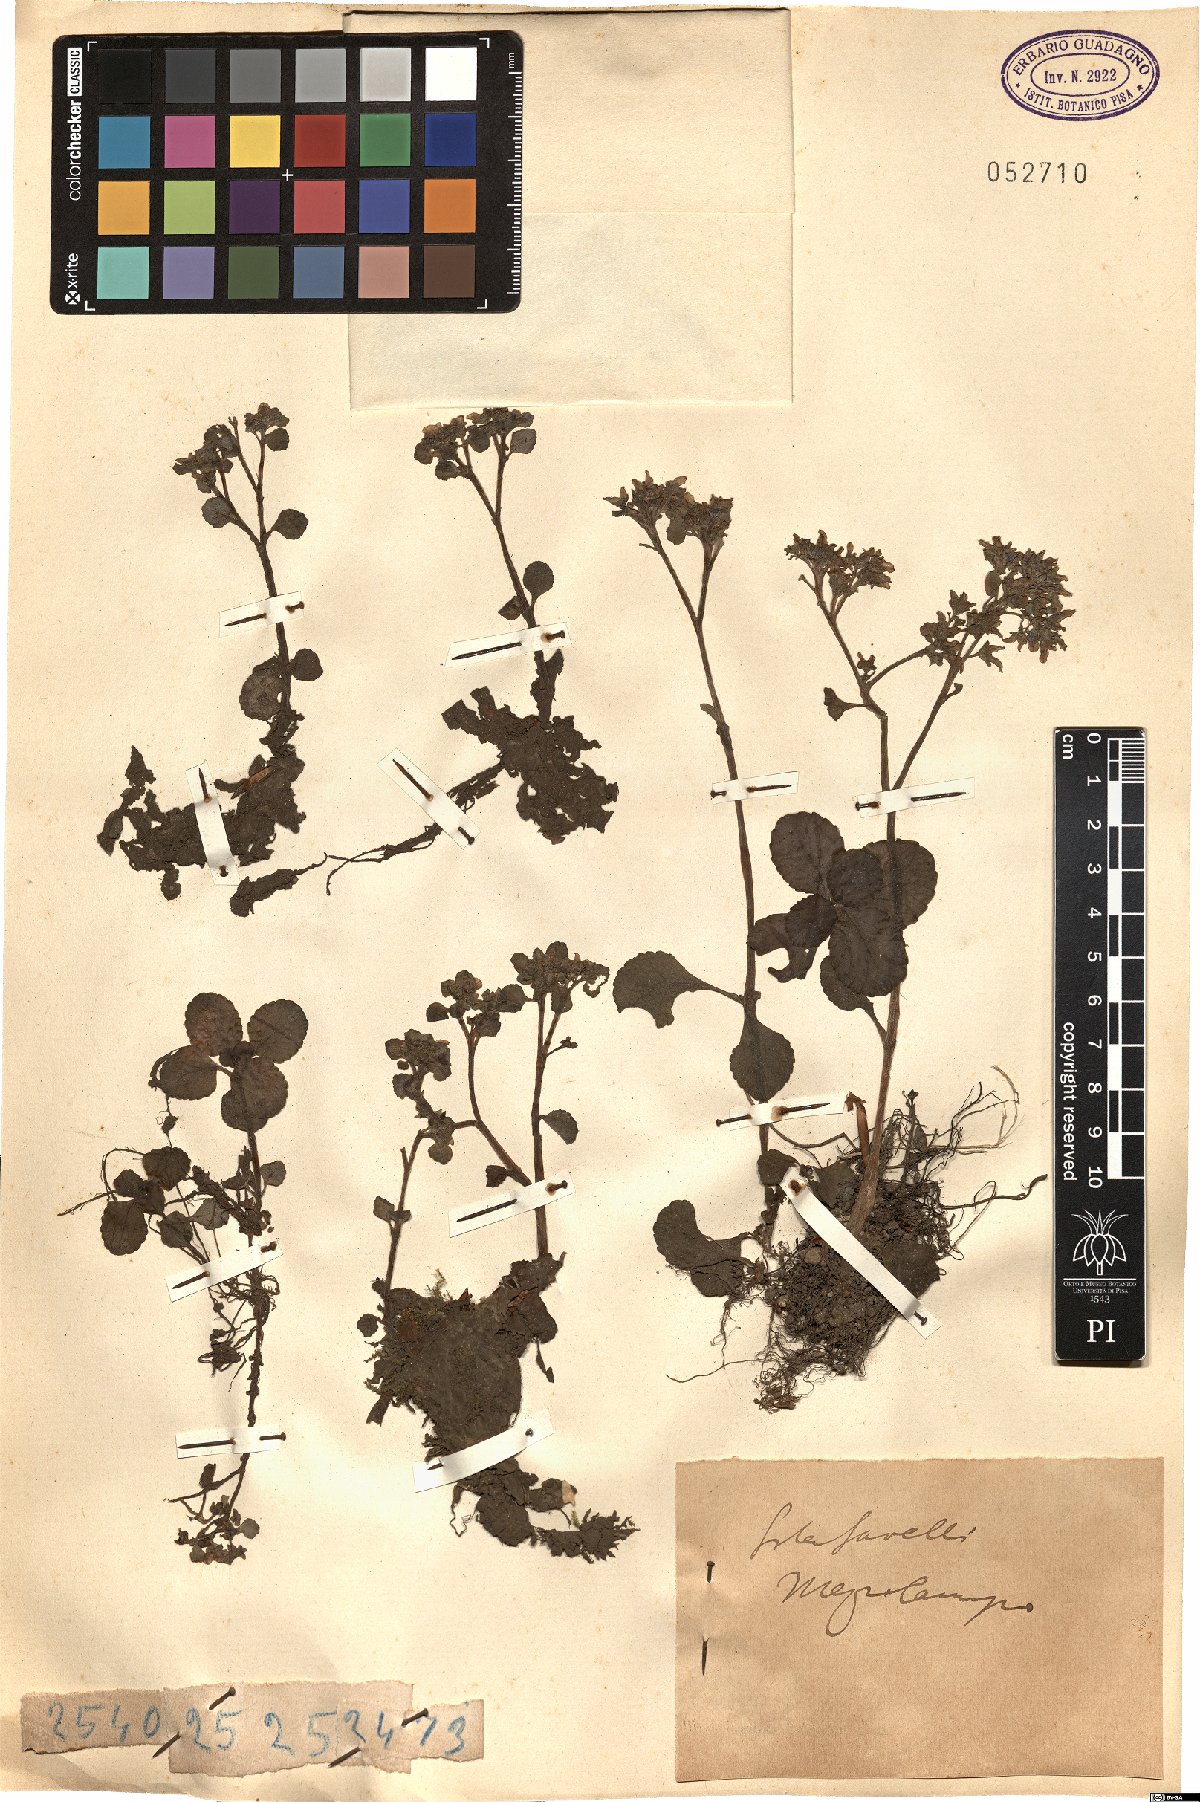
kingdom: Plantae
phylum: Tracheophyta
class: Magnoliopsida
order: Saxifragales
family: Saxifragaceae
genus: Chrysosplenium
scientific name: Chrysosplenium
